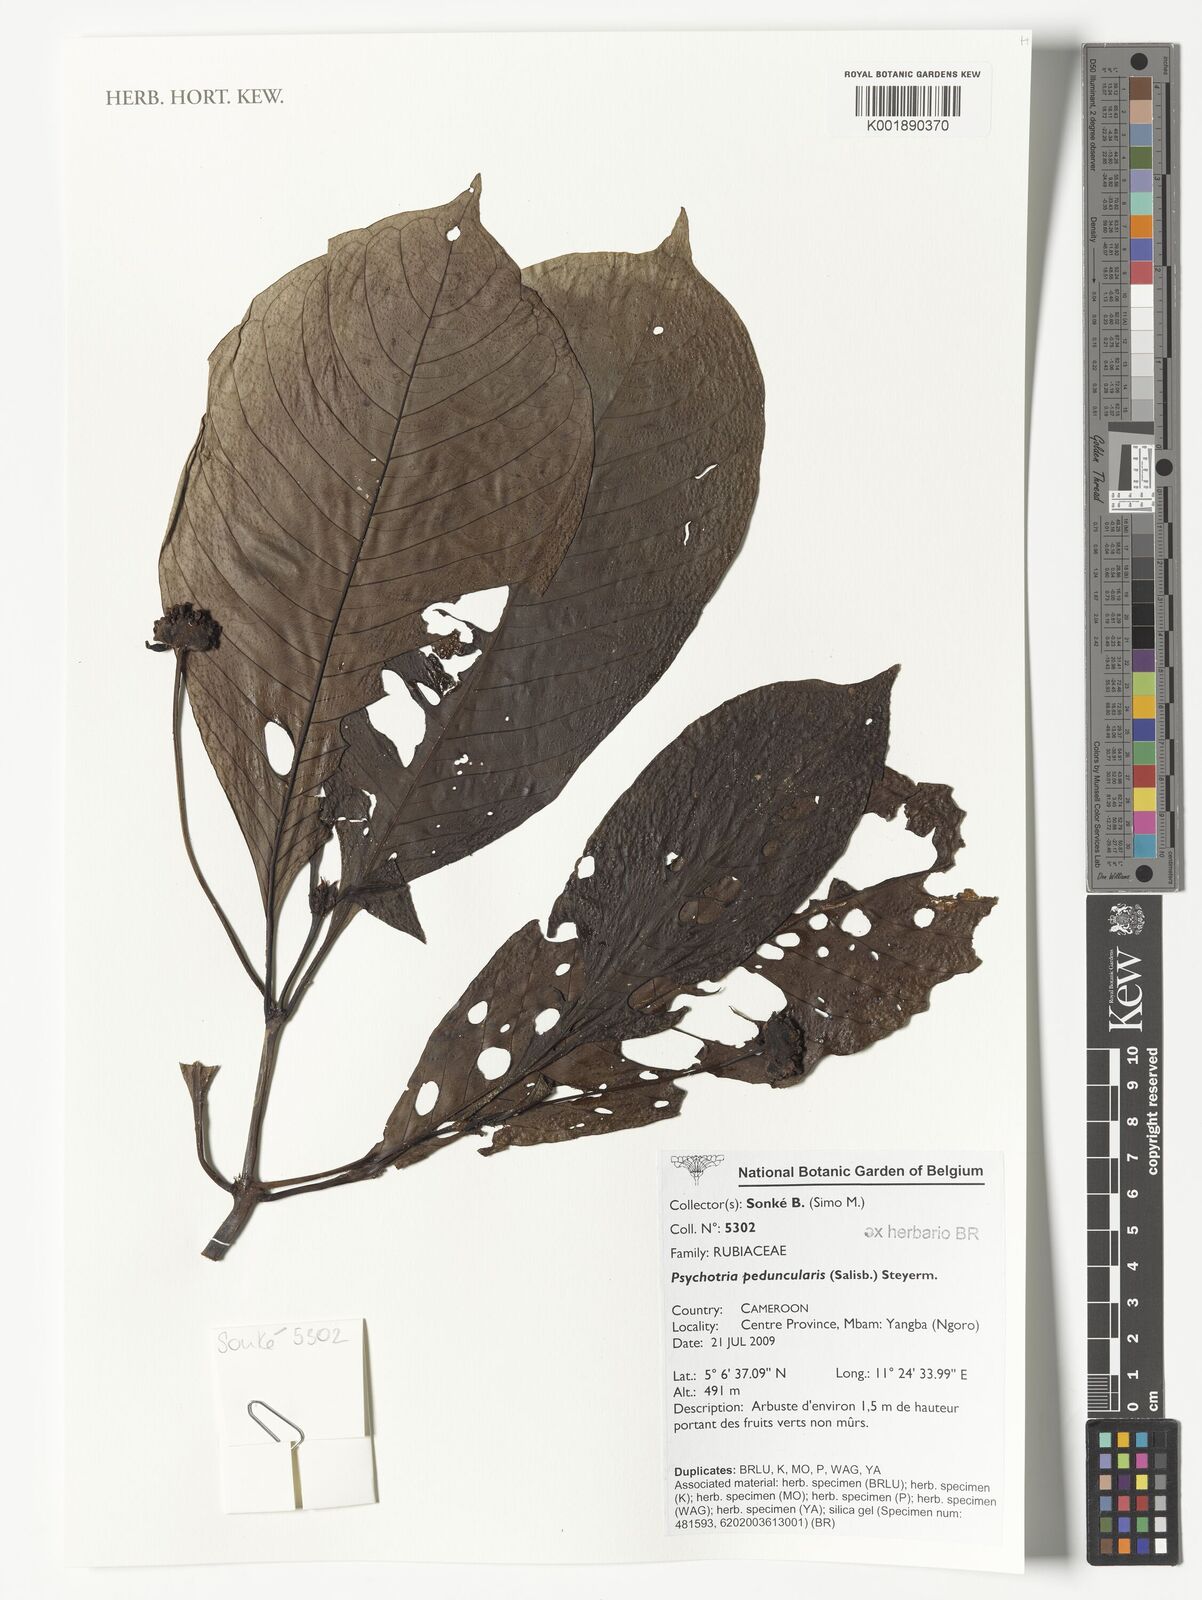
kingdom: Plantae
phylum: Tracheophyta
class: Magnoliopsida
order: Gentianales
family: Rubiaceae
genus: Psychotria
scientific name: Psychotria peduncularis
